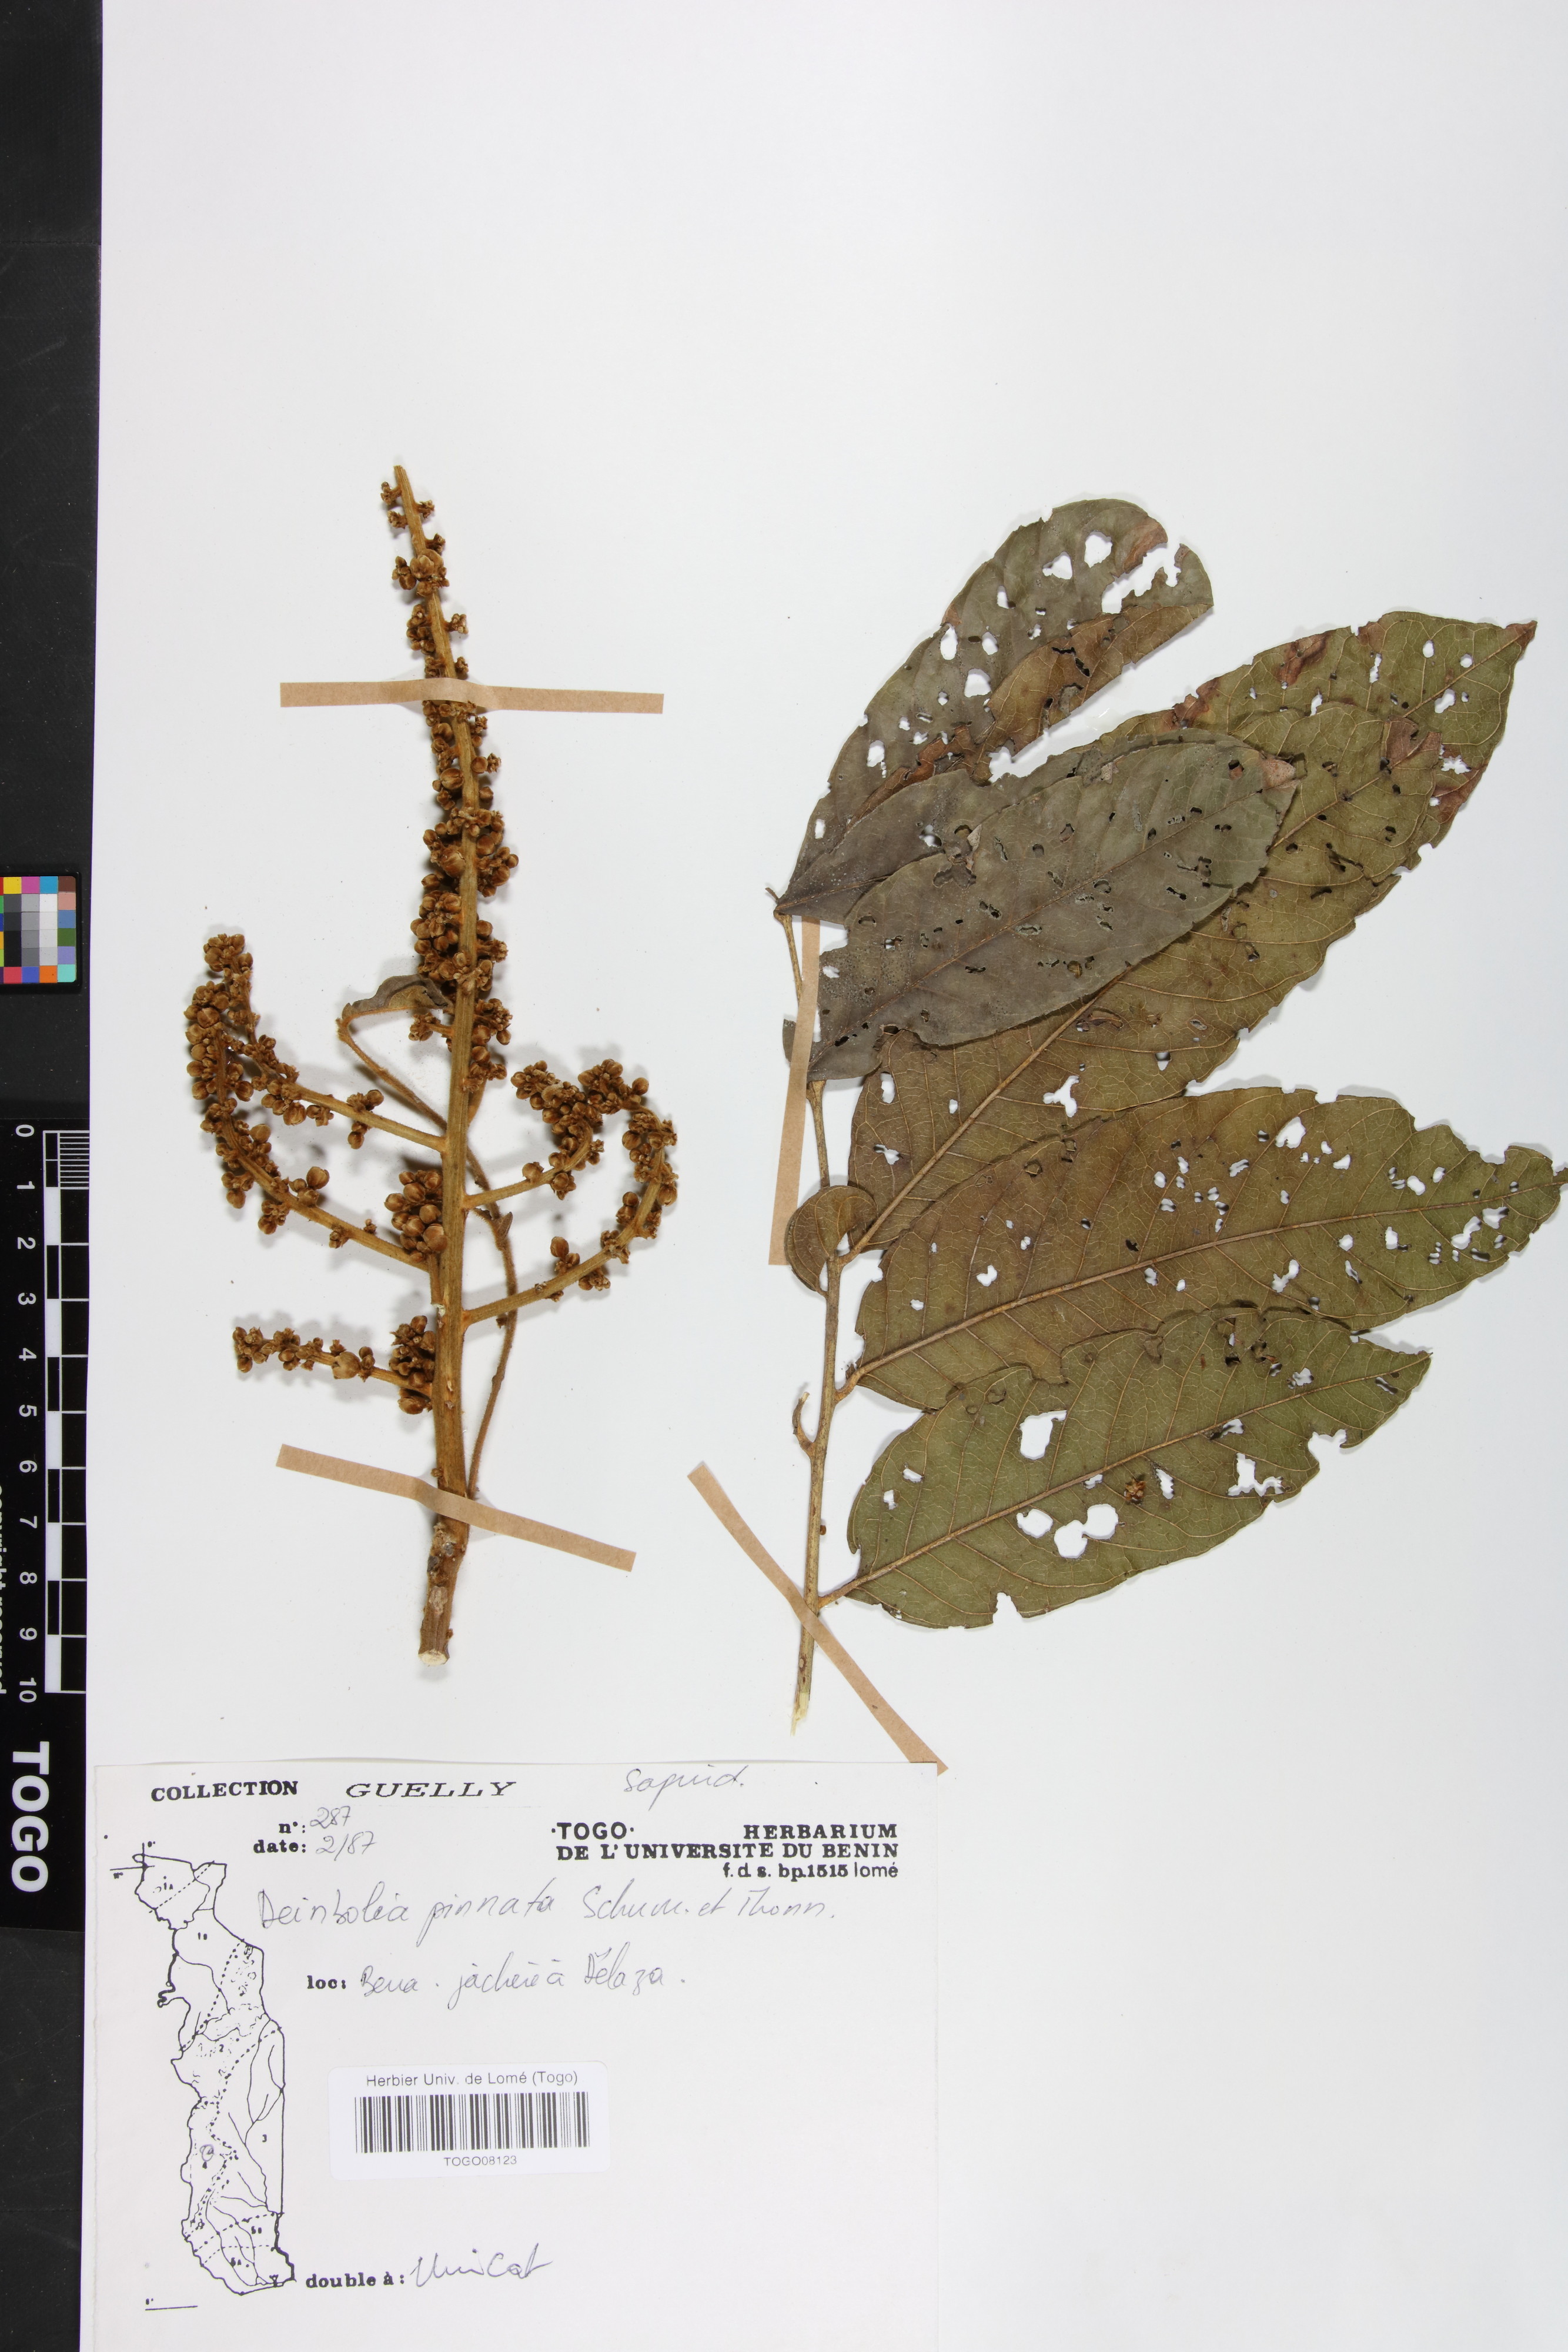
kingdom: Plantae
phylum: Tracheophyta
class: Magnoliopsida
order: Sapindales
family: Sapindaceae
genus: Deinbollia
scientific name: Deinbollia pinnata
